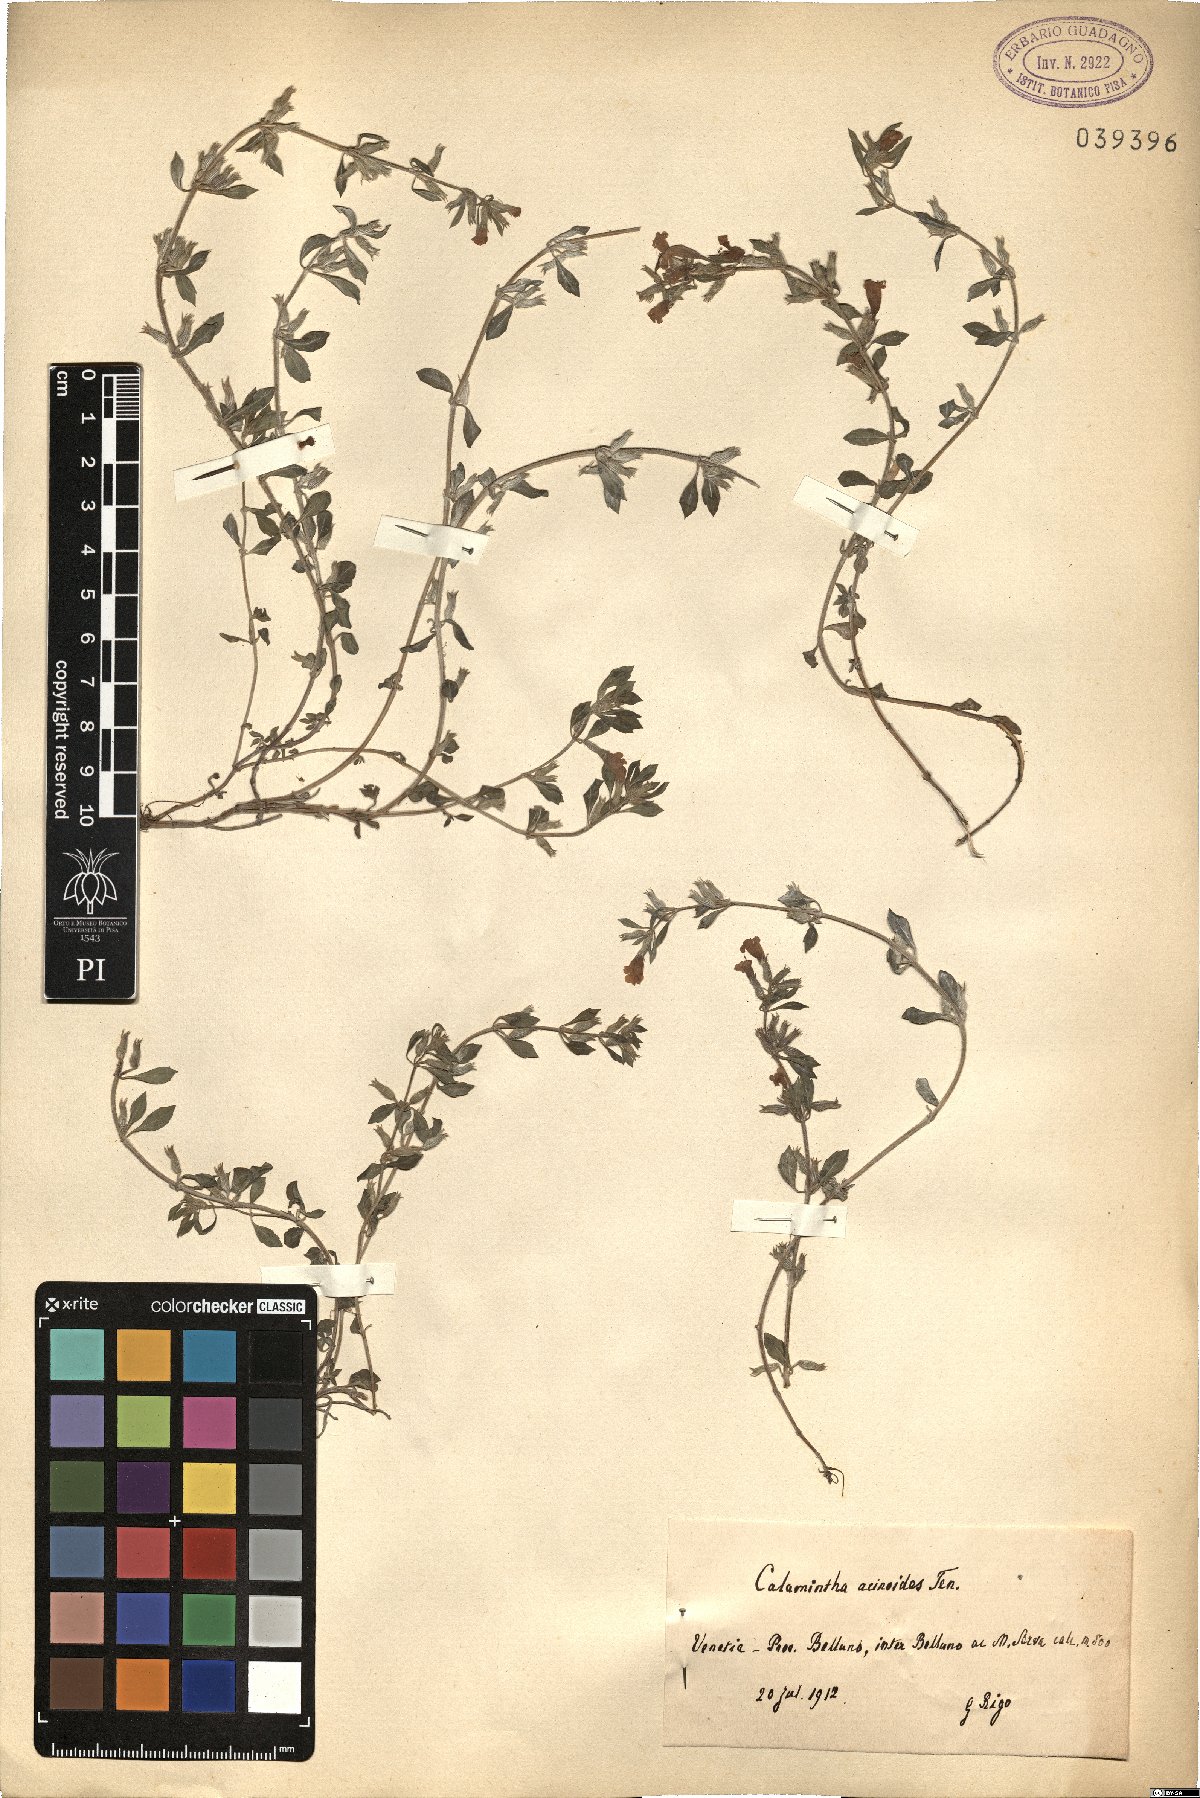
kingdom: Plantae
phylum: Tracheophyta
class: Magnoliopsida
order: Lamiales
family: Lamiaceae
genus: Clinopodium
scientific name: Clinopodium suaveolens
